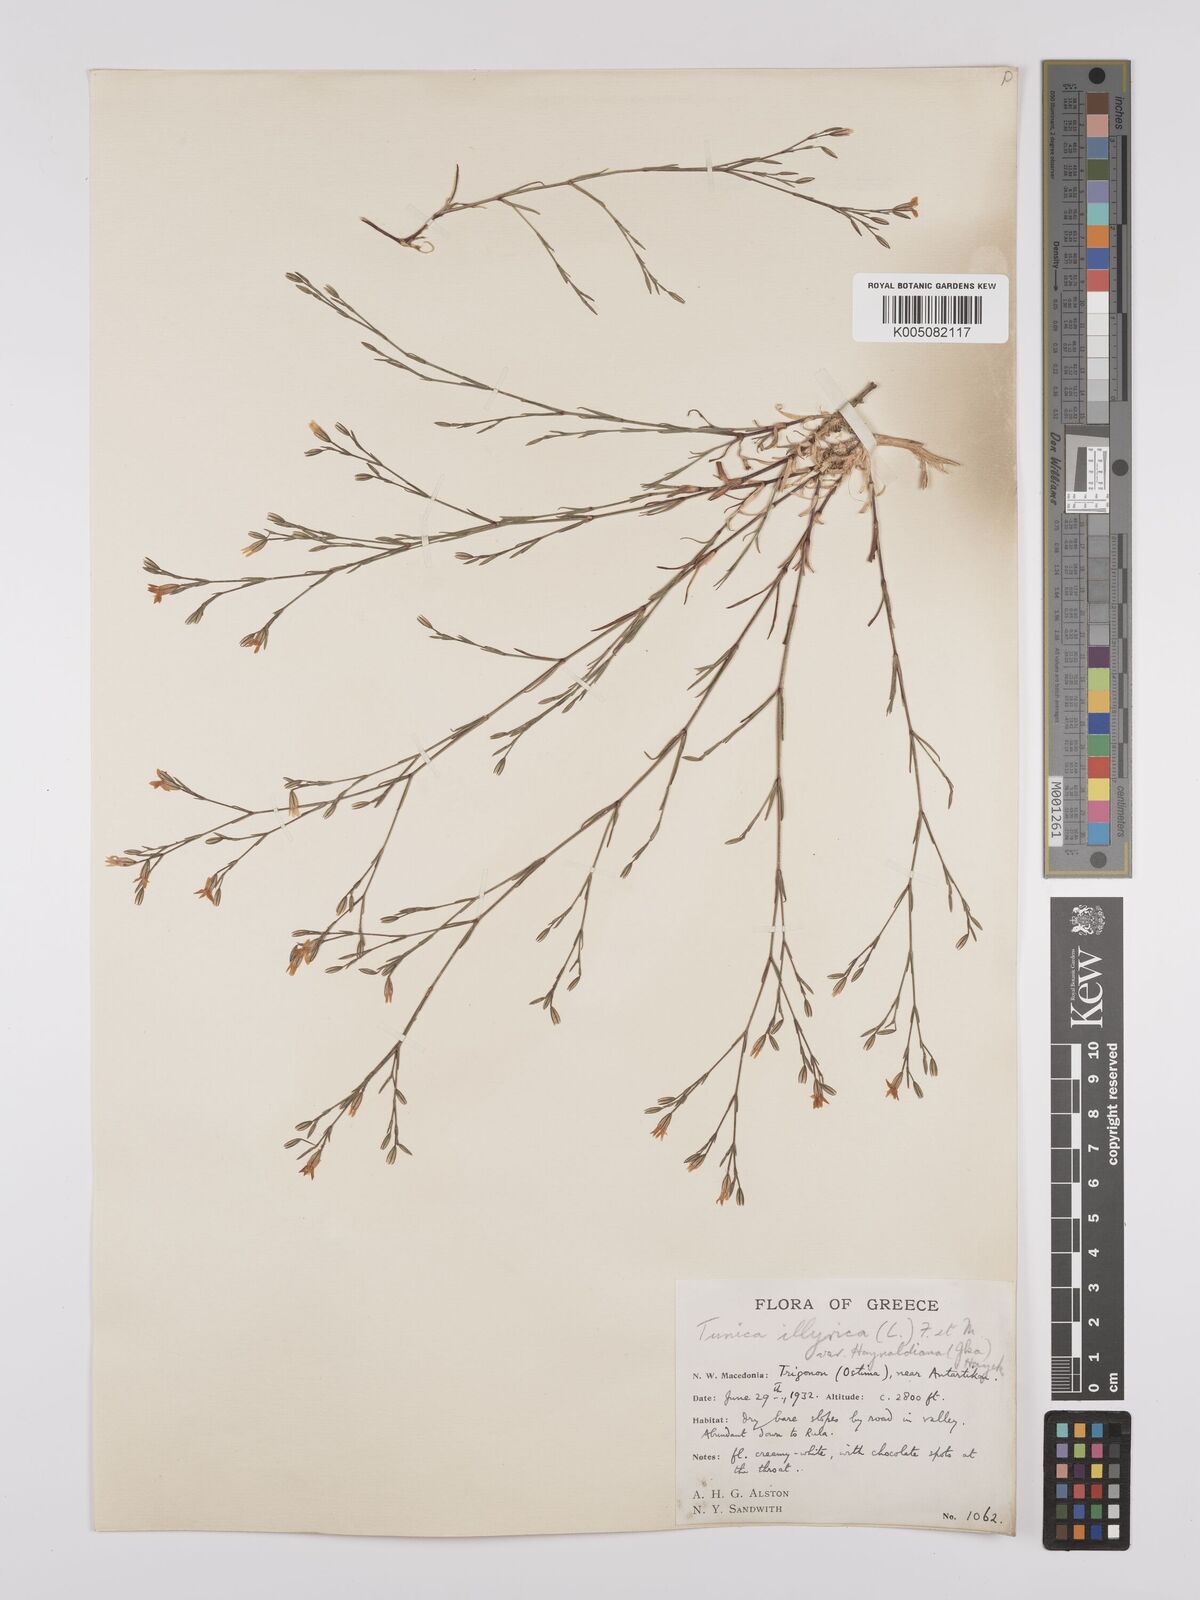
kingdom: Plantae
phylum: Tracheophyta
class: Magnoliopsida
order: Caryophyllales
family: Caryophyllaceae
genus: Dianthus
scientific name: Dianthus illyricus
